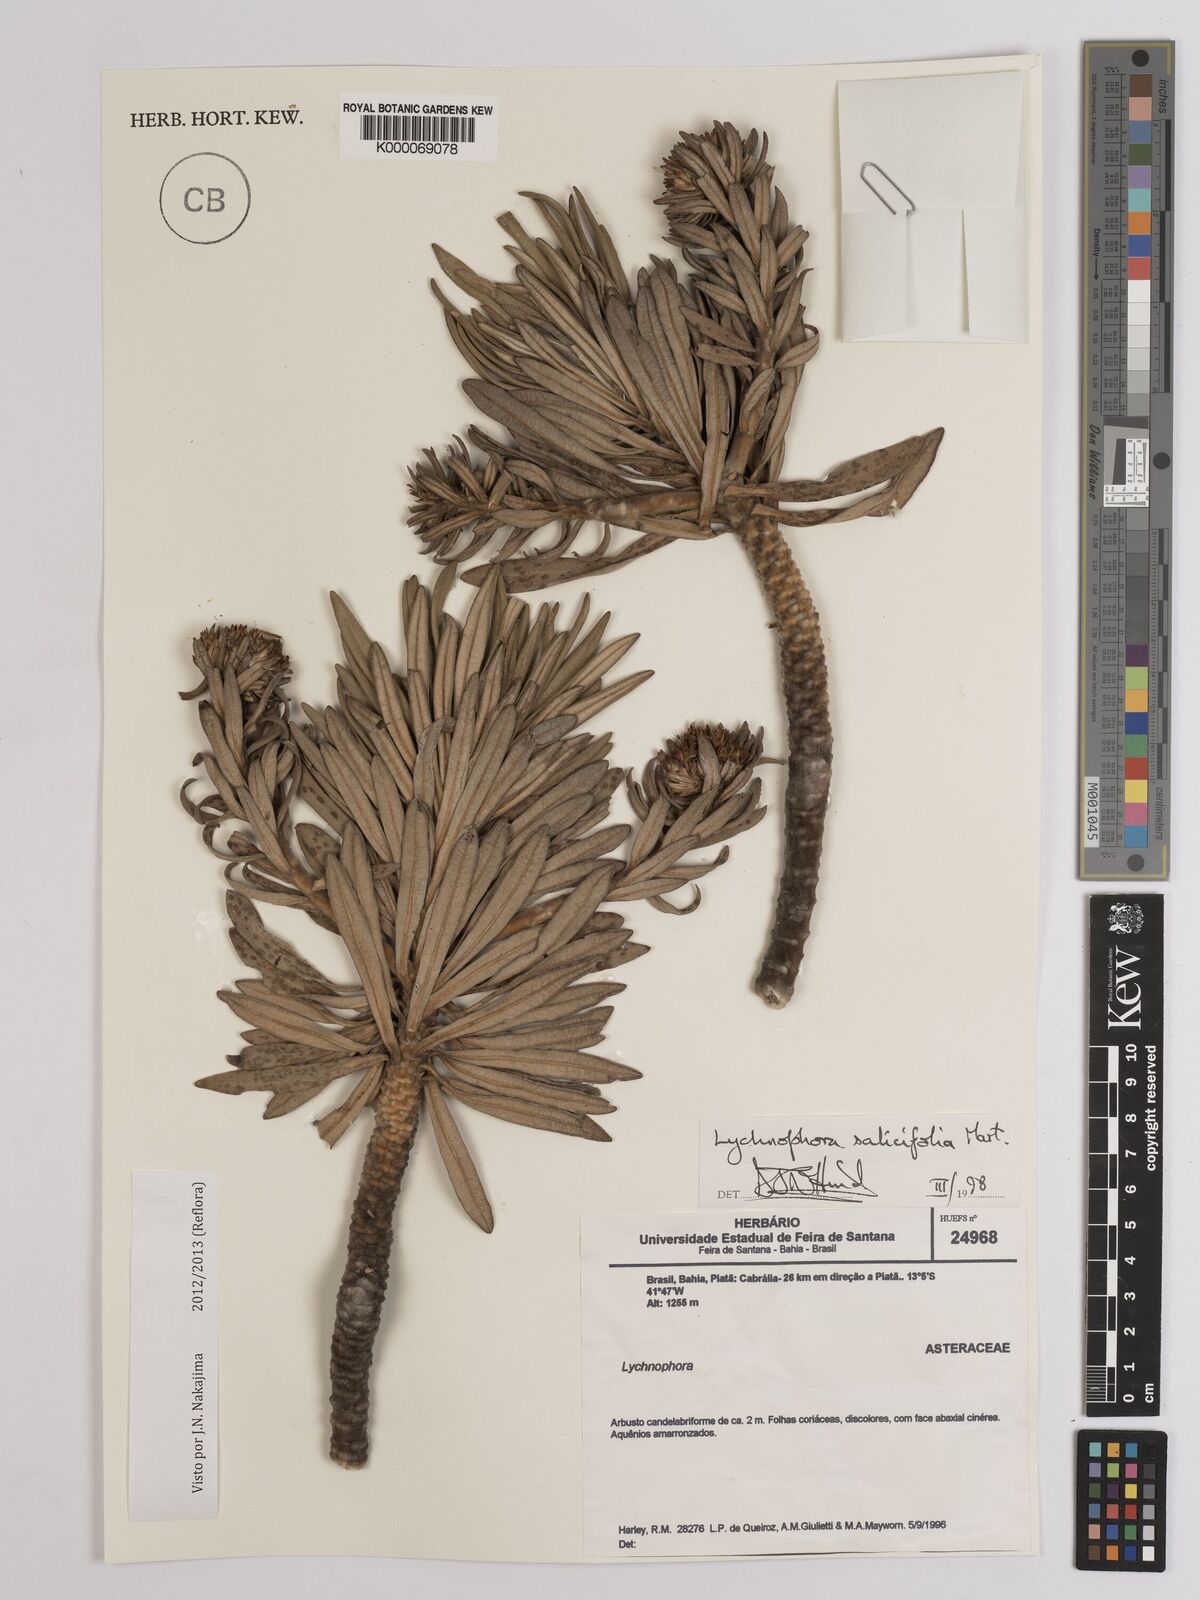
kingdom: Plantae
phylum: Tracheophyta
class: Magnoliopsida
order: Asterales
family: Asteraceae
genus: Lychnophora
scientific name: Lychnophora salicifolia
